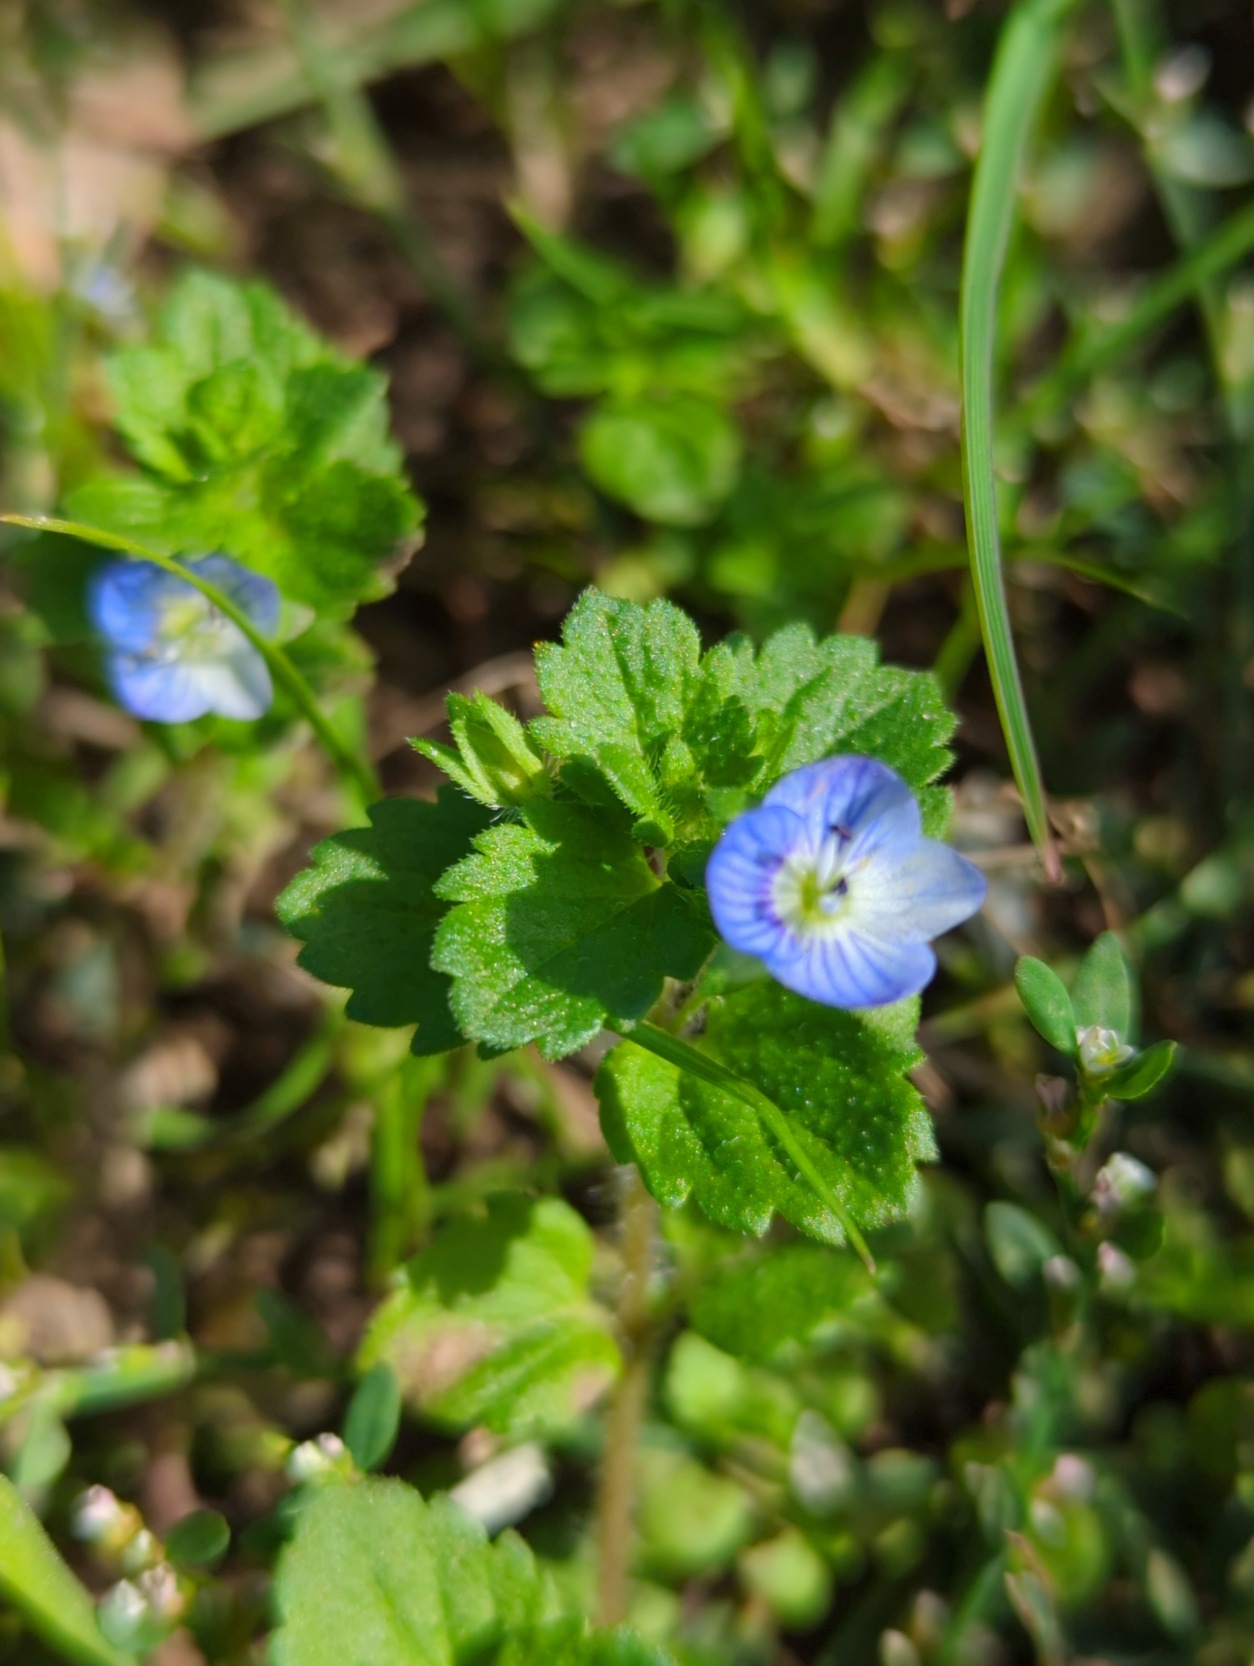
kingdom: Plantae
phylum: Tracheophyta
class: Magnoliopsida
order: Lamiales
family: Plantaginaceae
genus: Veronica
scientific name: Veronica persica
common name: Storkronet ærenpris
